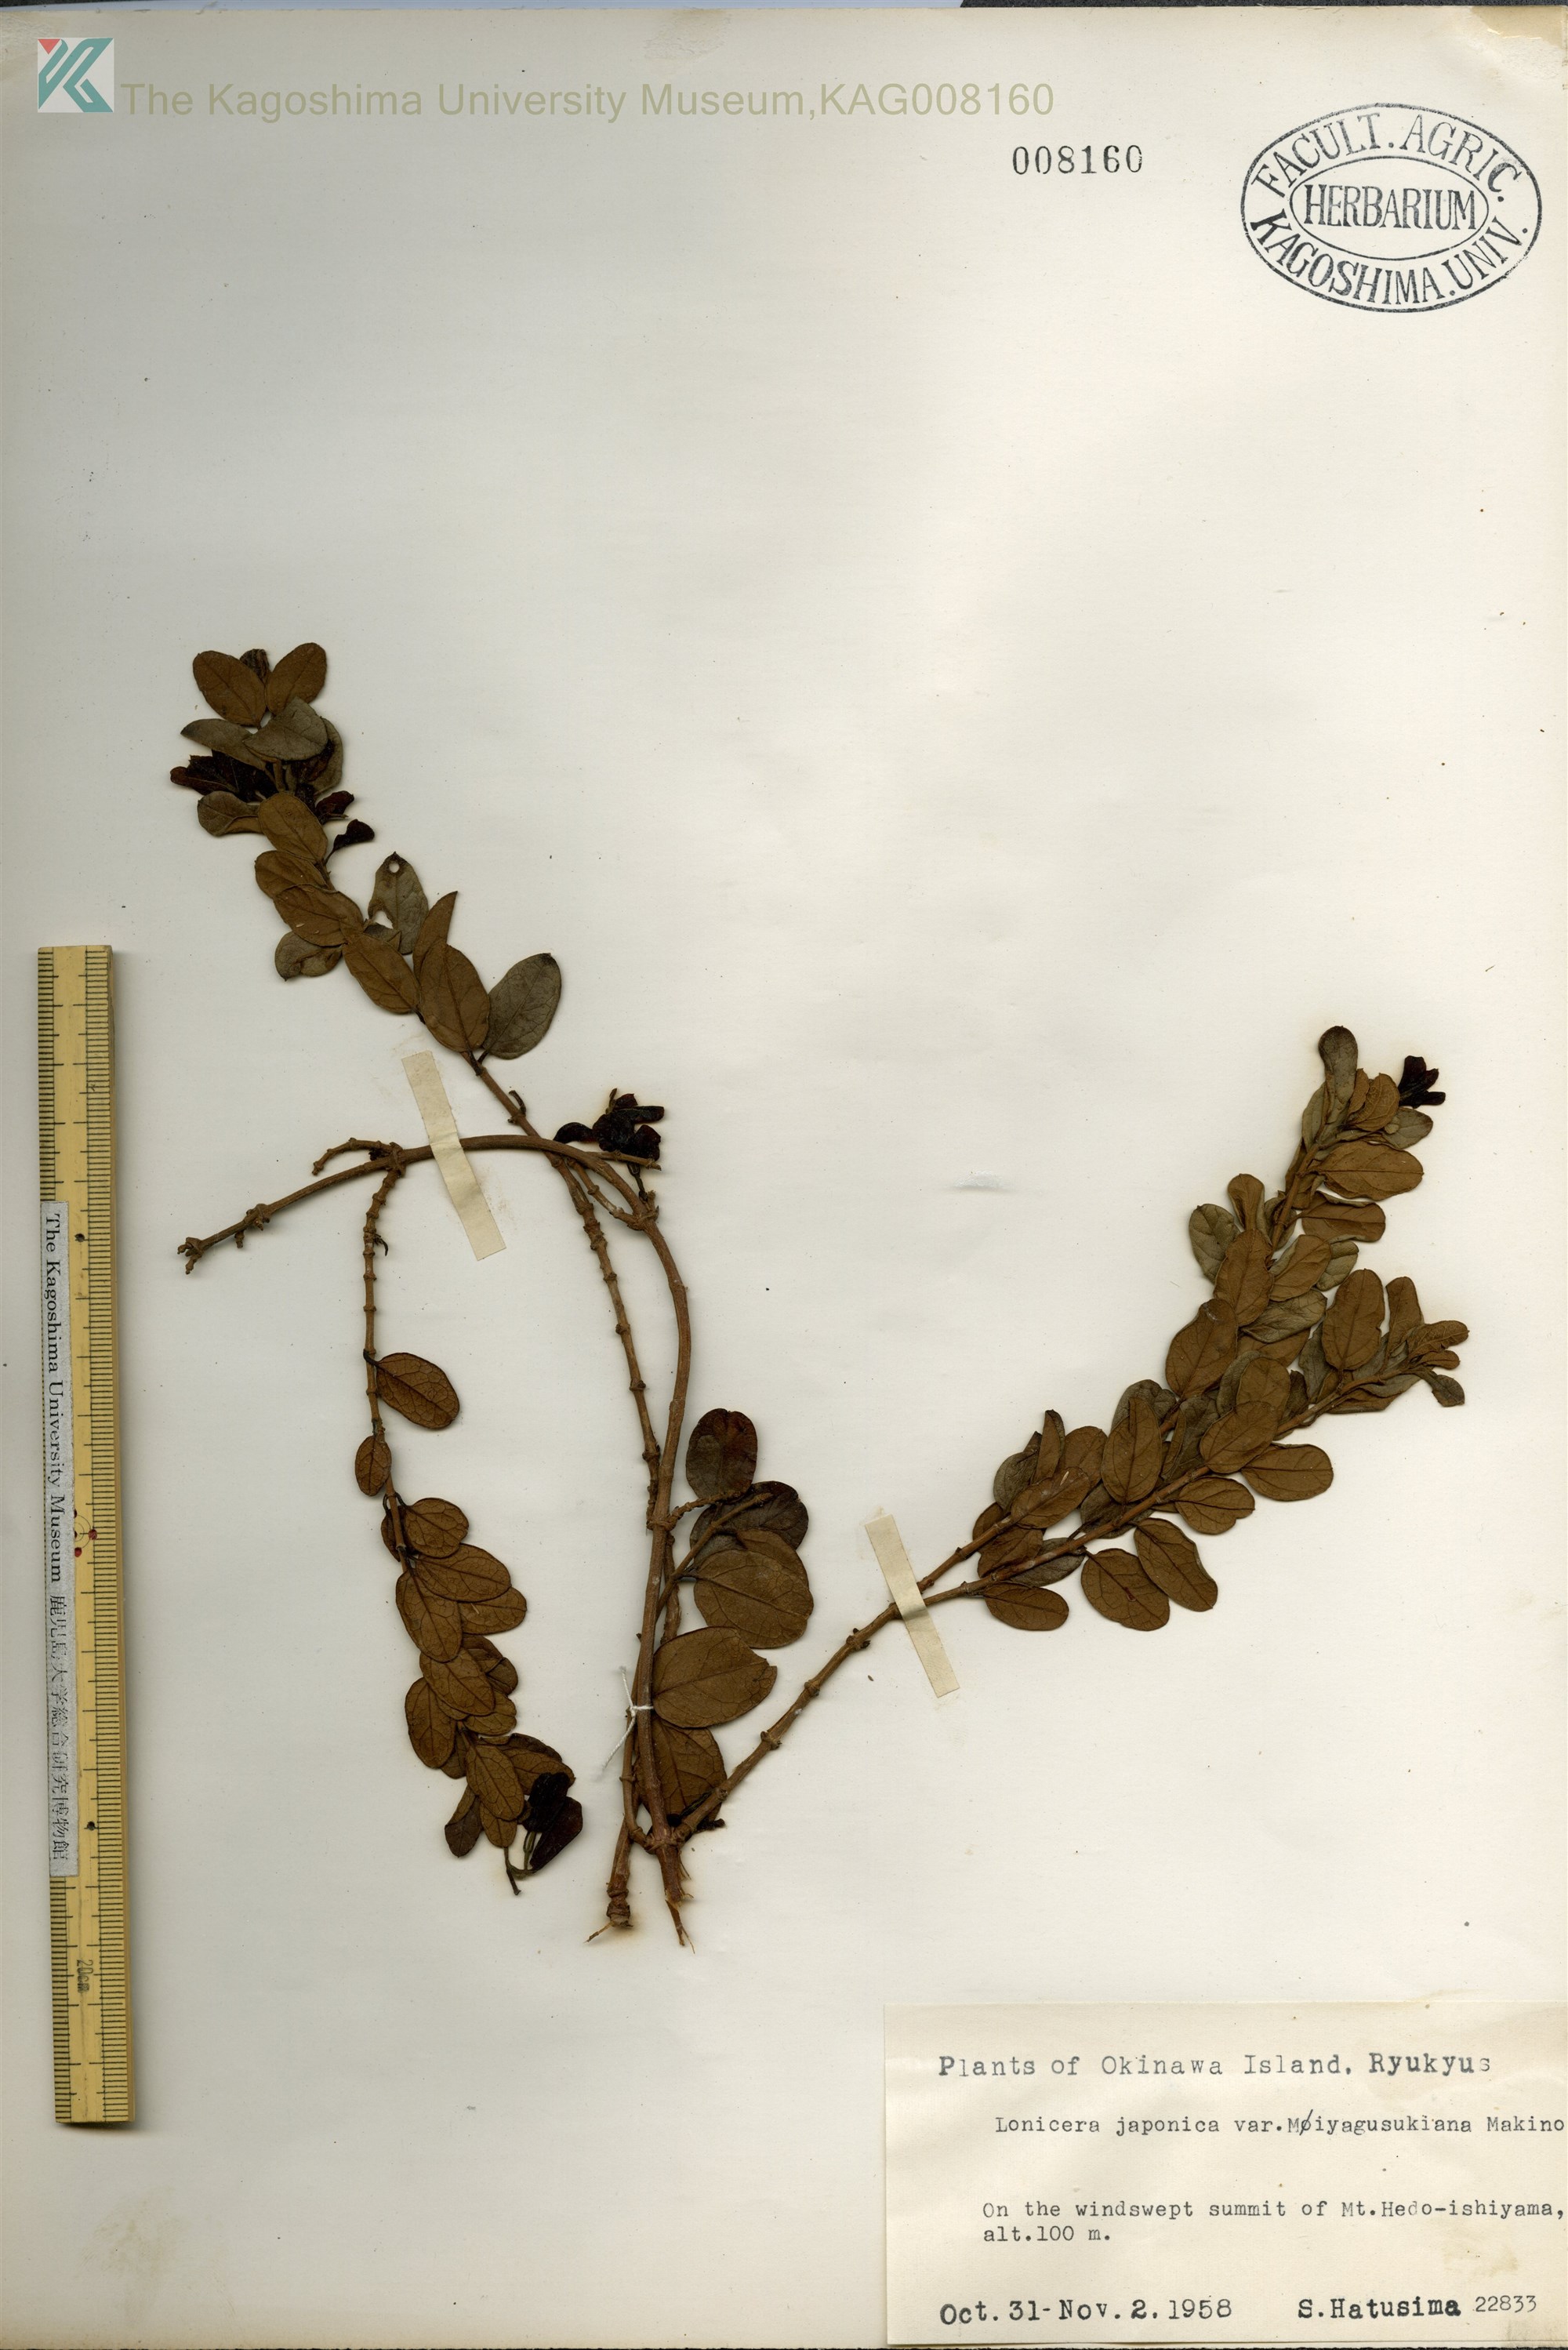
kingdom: Plantae
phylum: Tracheophyta
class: Magnoliopsida
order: Dipsacales
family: Caprifoliaceae
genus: Lonicera
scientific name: Lonicera japonica
